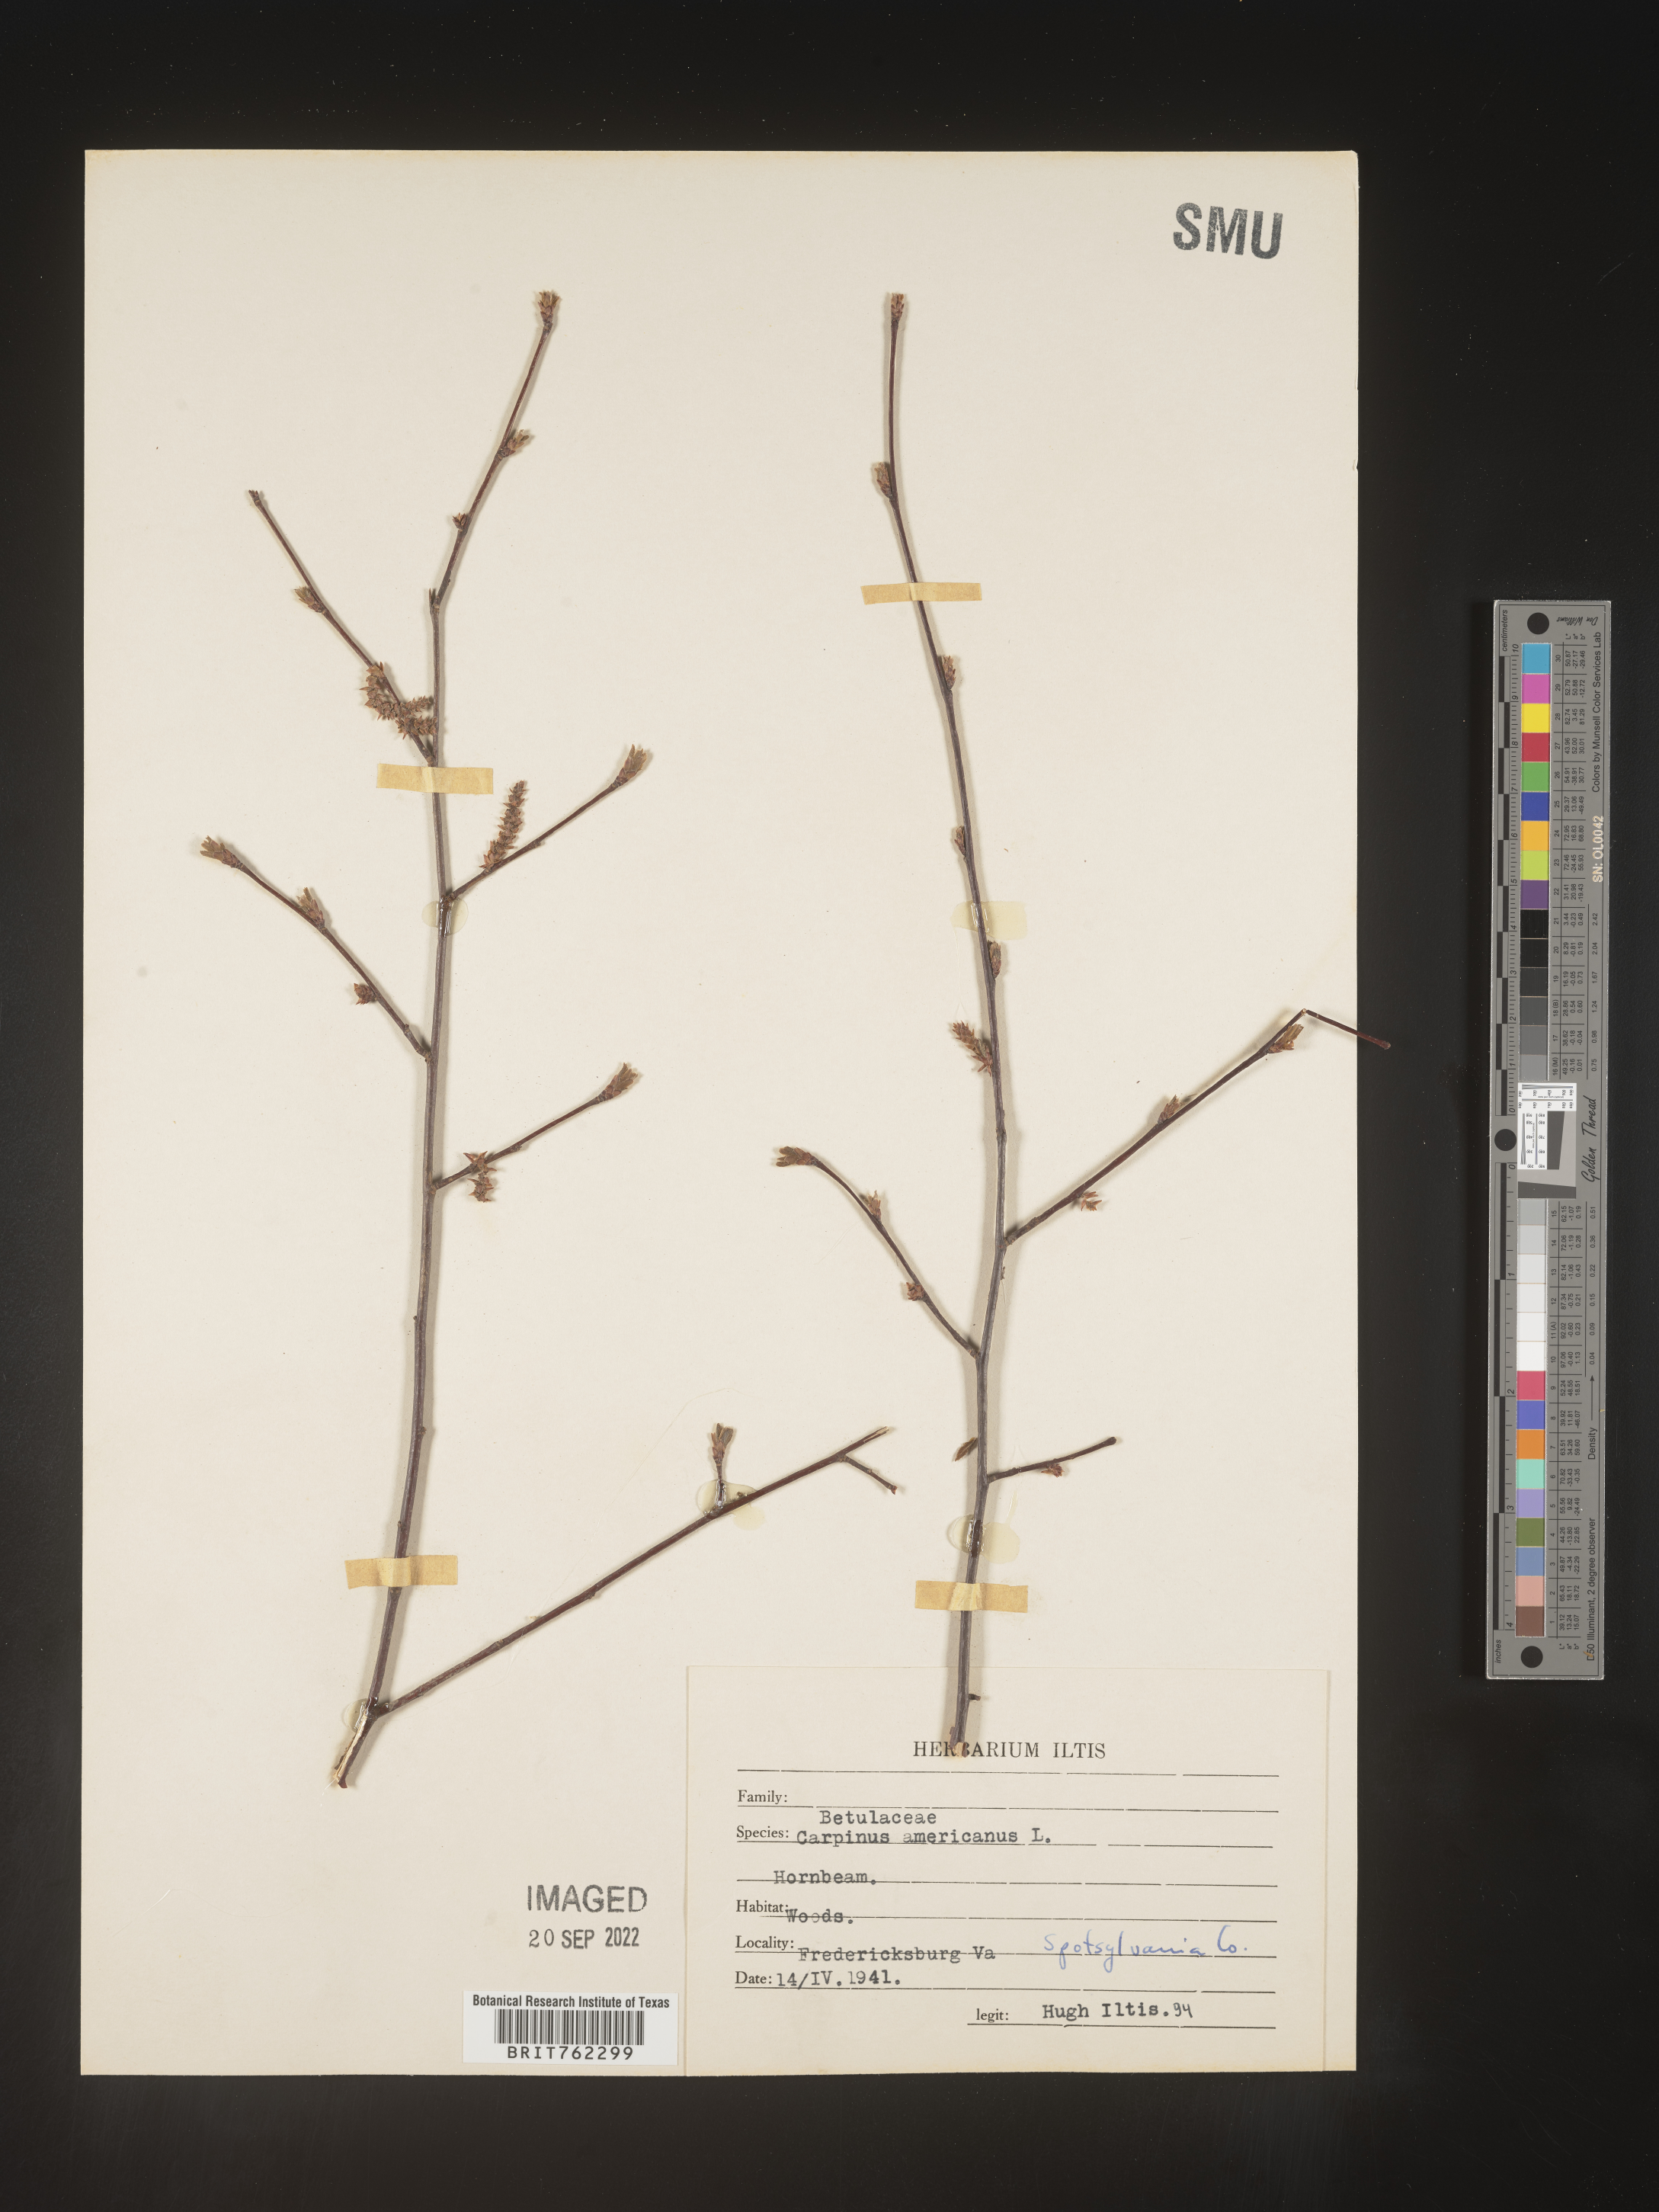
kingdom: Plantae
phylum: Tracheophyta
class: Magnoliopsida
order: Fagales
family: Betulaceae
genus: Carpinus
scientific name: Carpinus caroliniana
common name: American hornbeam
